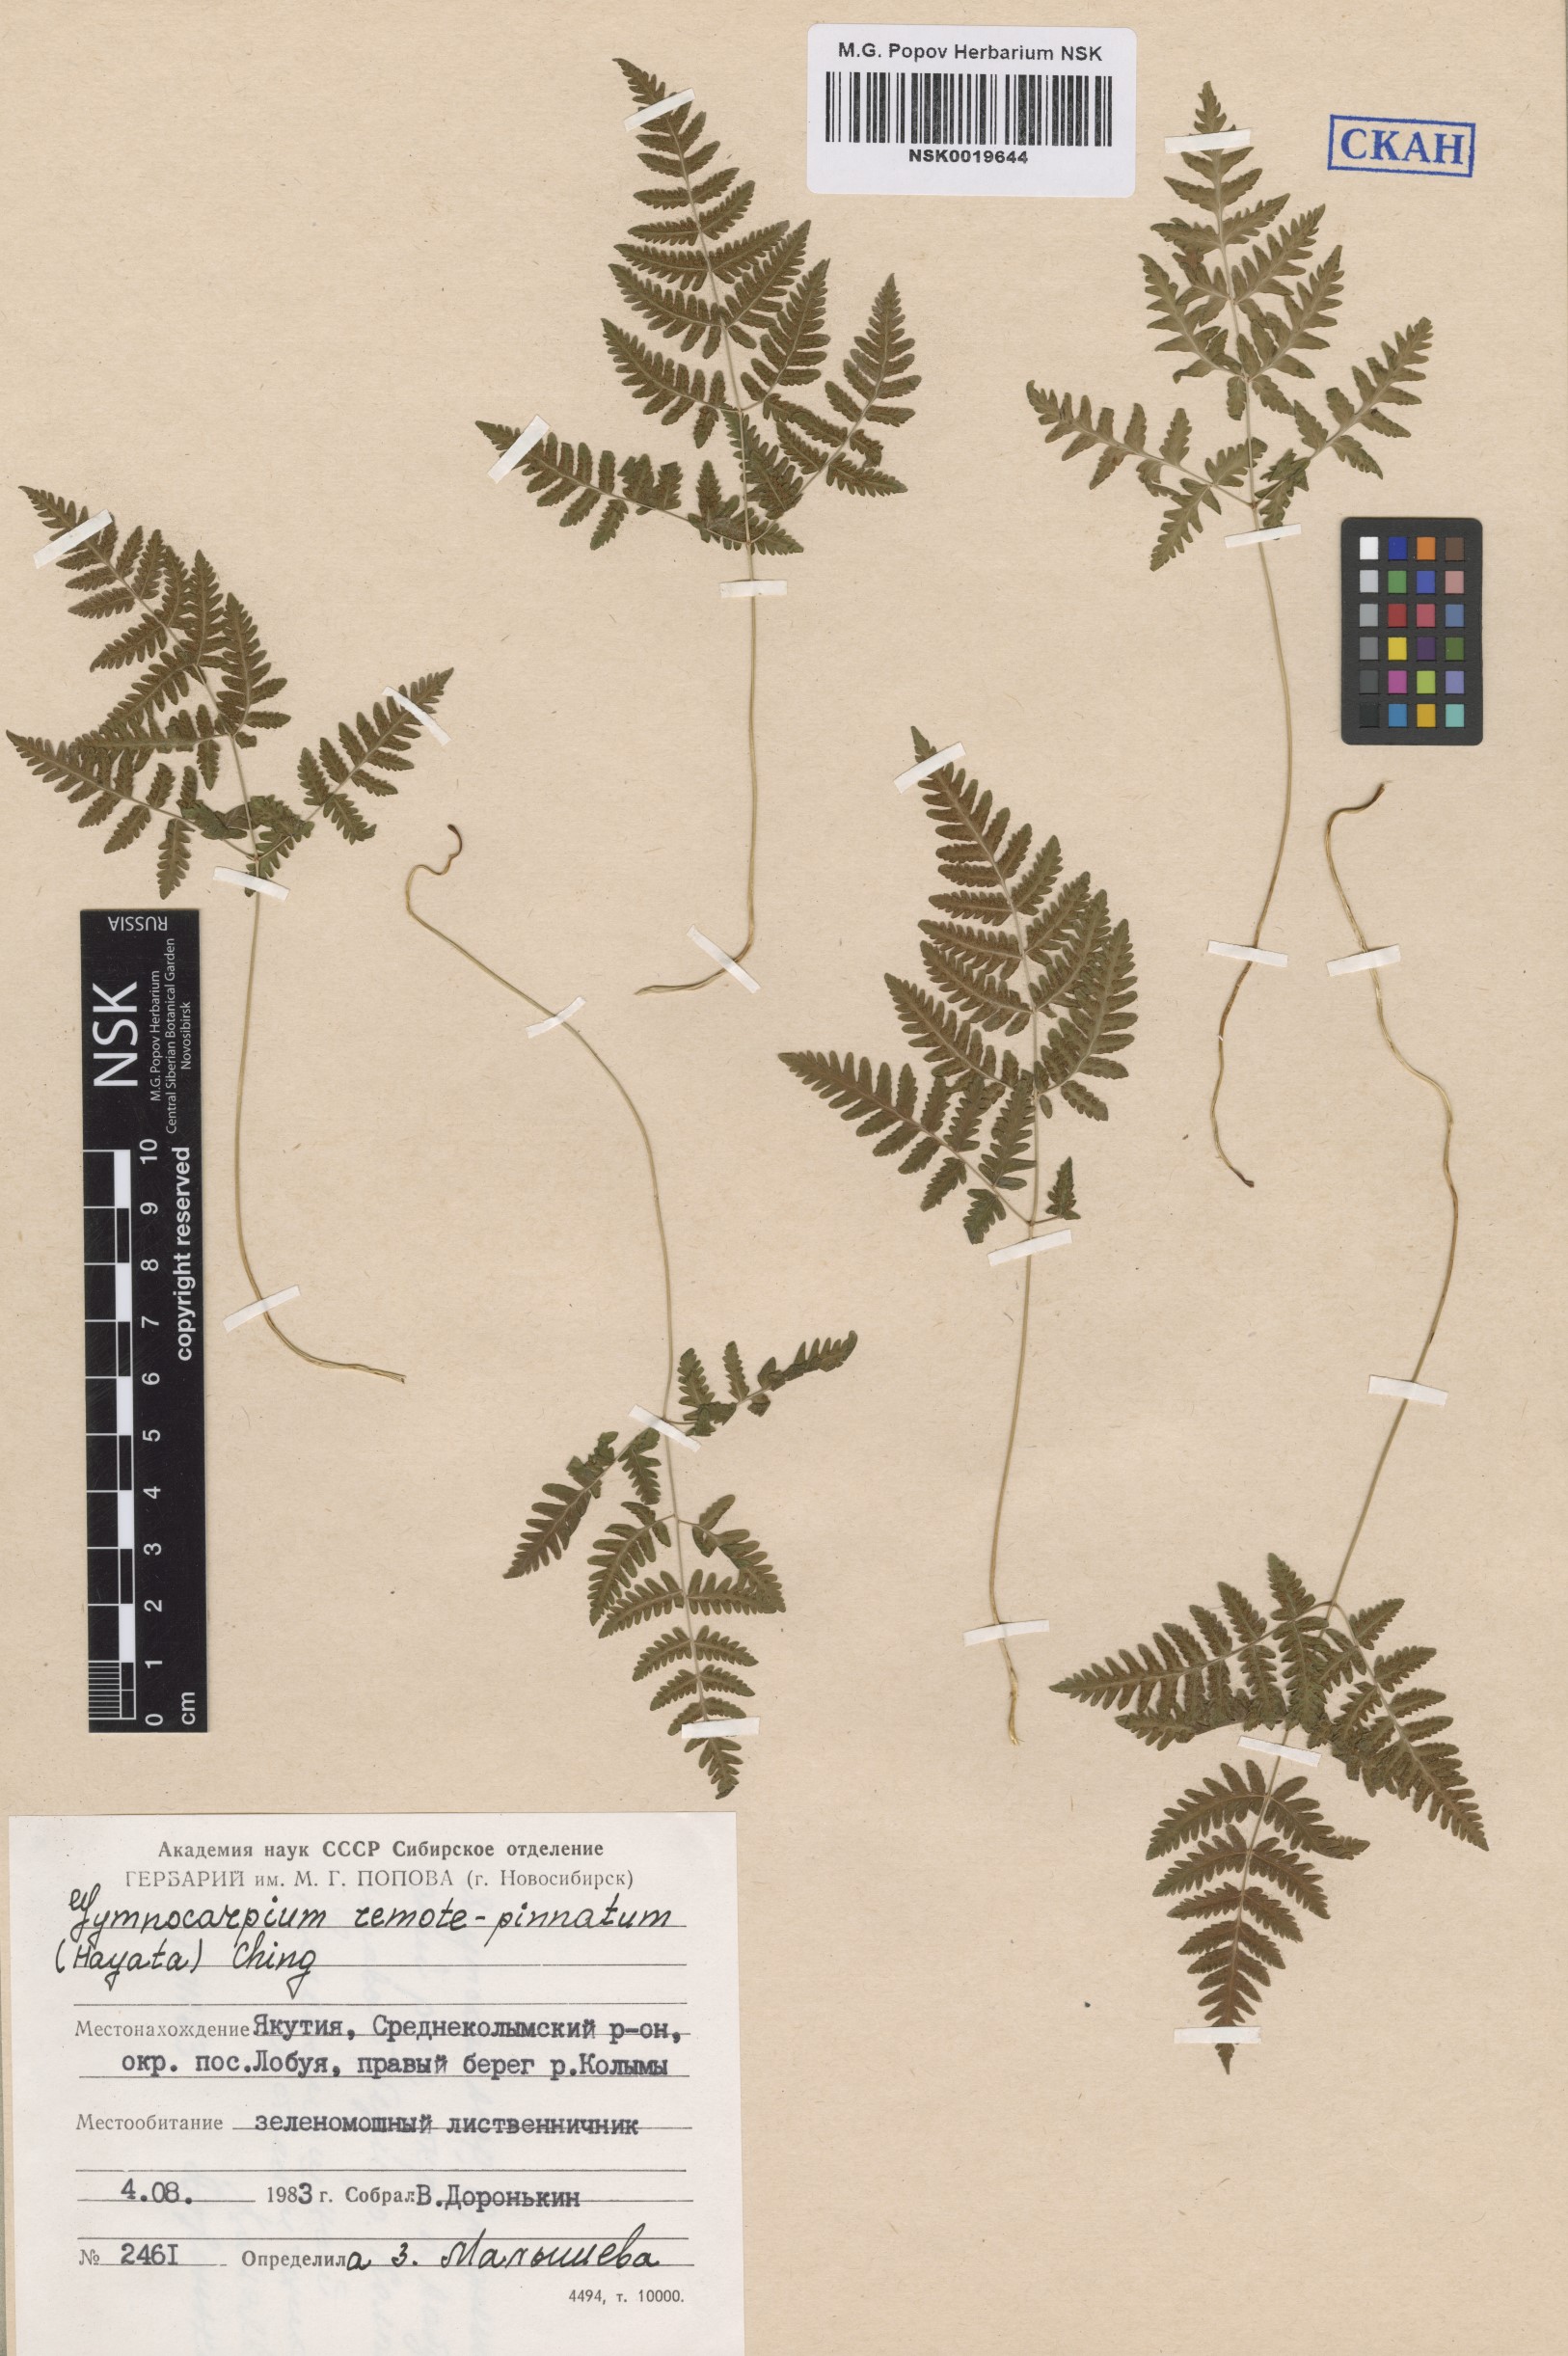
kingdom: Plantae
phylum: Tracheophyta
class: Polypodiopsida
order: Polypodiales
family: Cystopteridaceae
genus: Gymnocarpium
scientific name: Gymnocarpium continentale
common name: Asian oak fern
